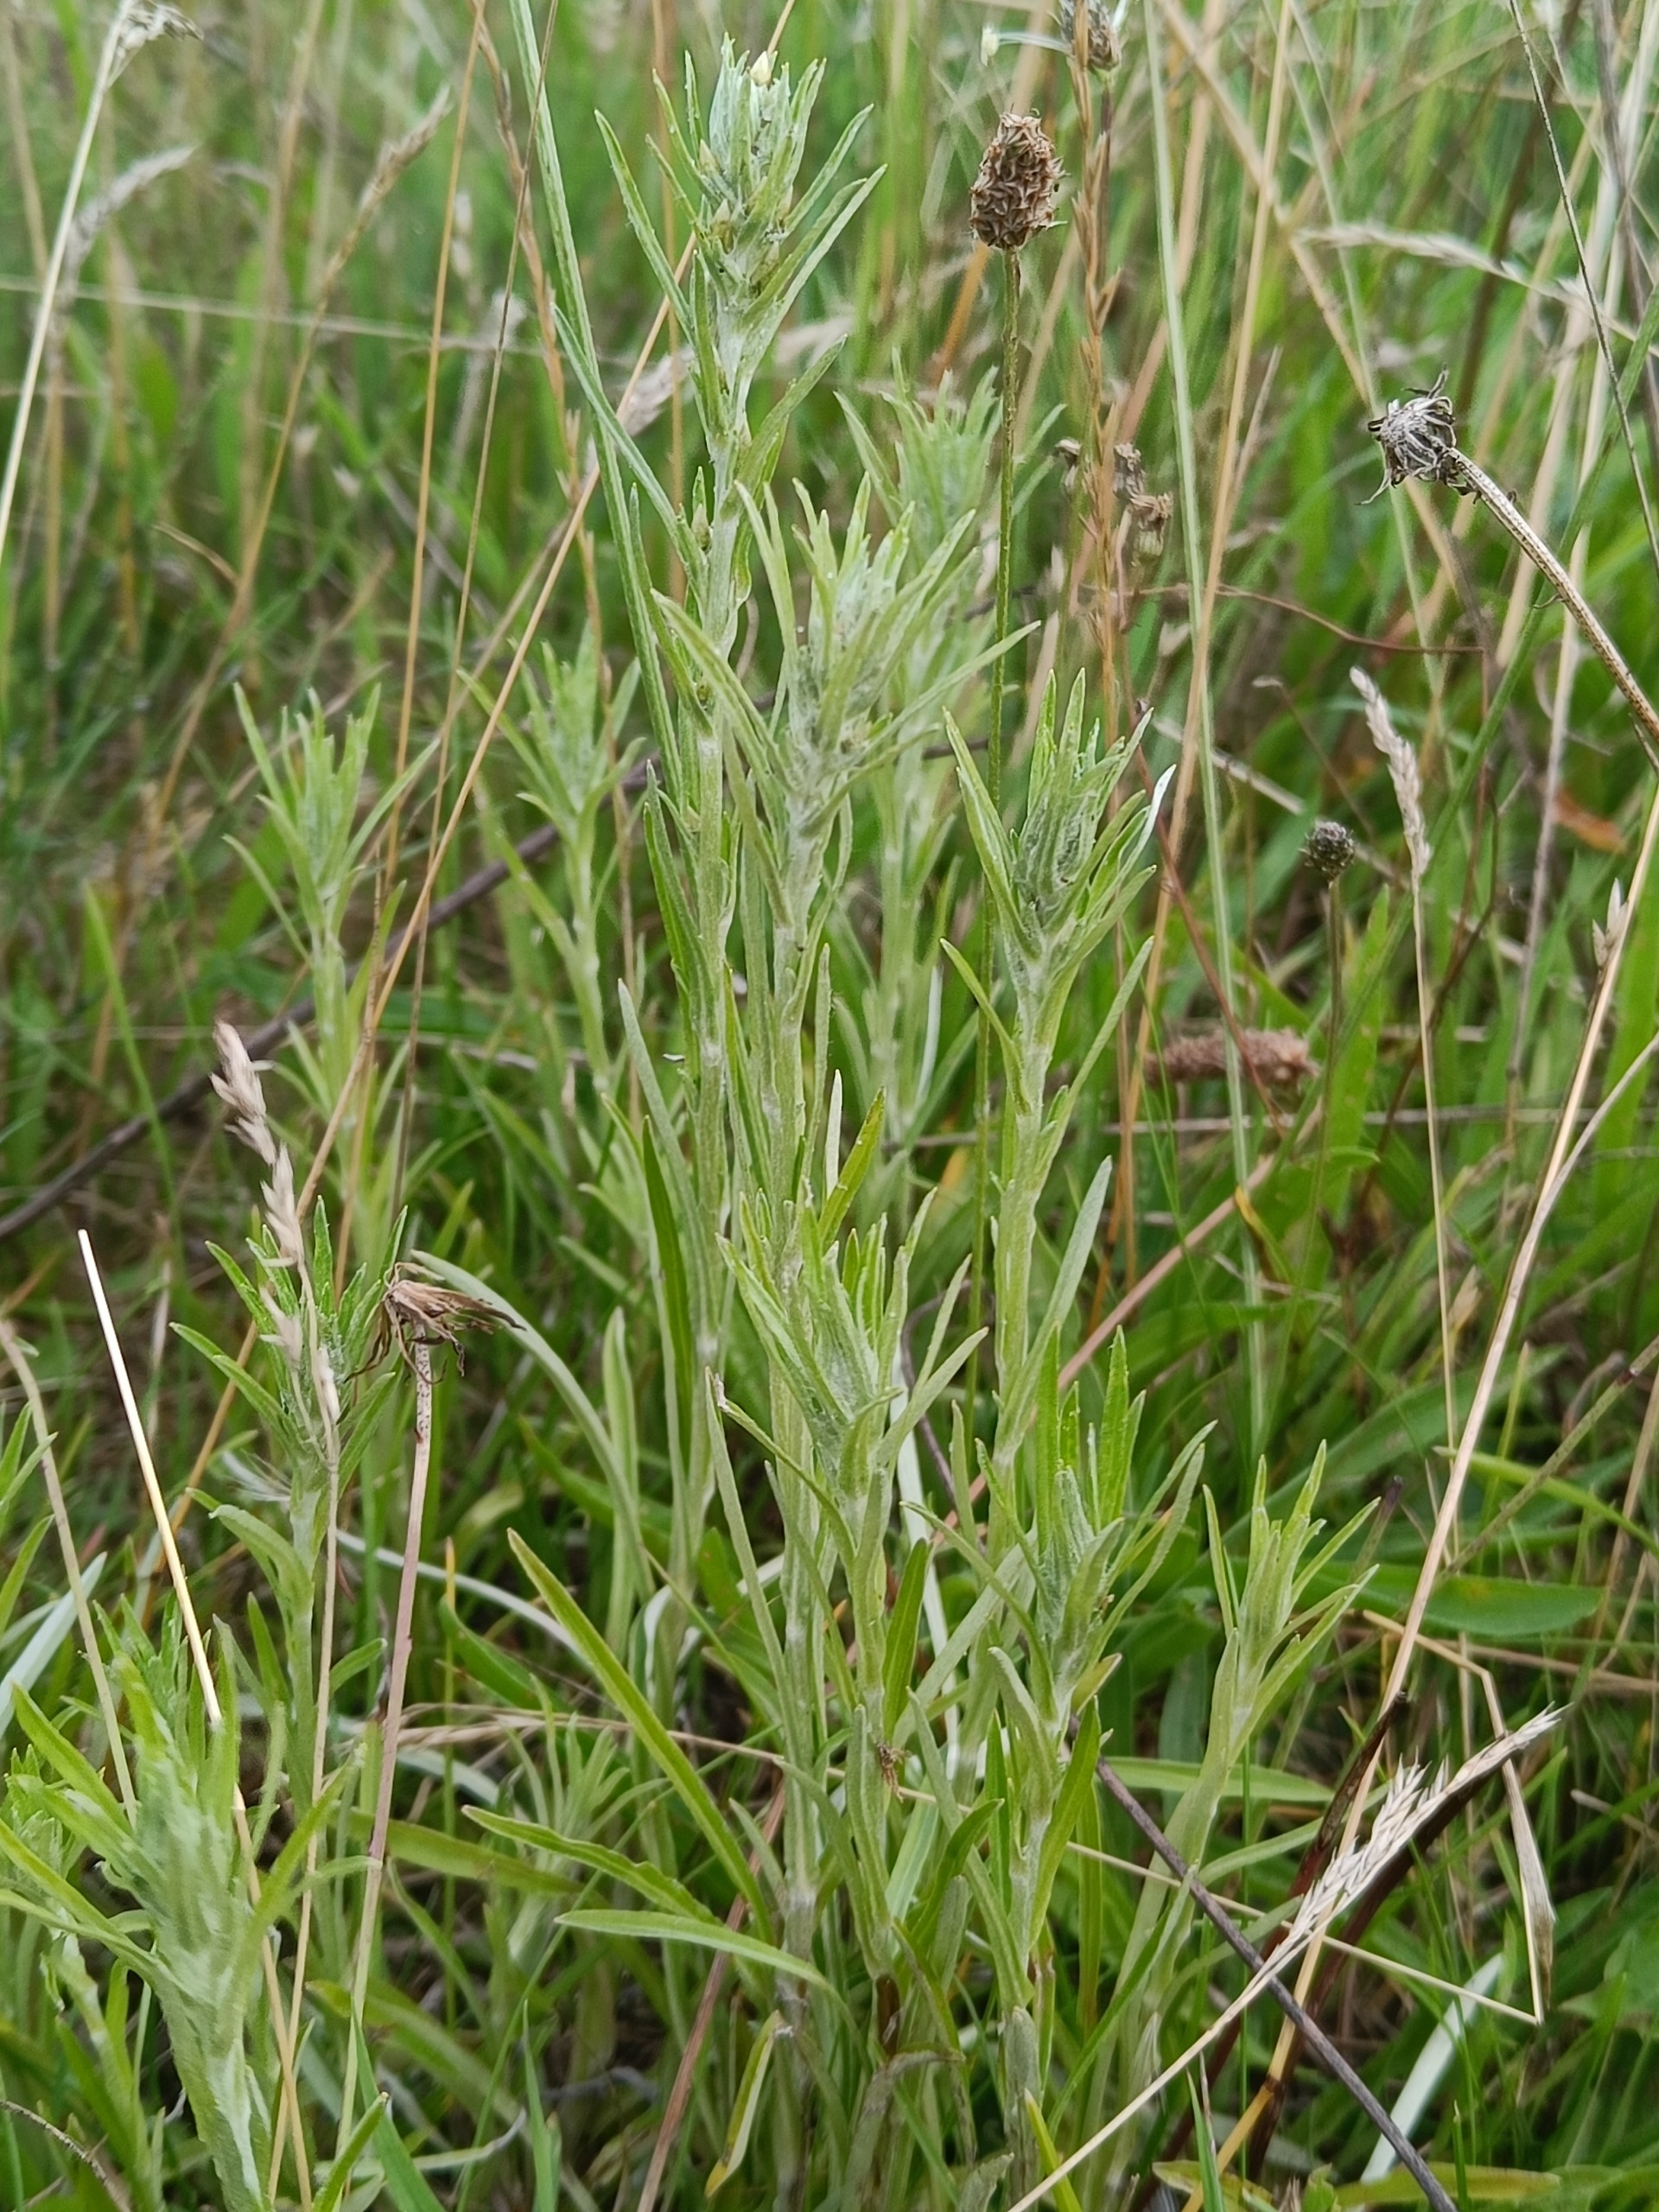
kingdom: Plantae
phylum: Tracheophyta
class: Magnoliopsida
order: Asterales
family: Asteraceae
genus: Omalotheca
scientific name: Omalotheca sylvatica
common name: Rank evighedsblomst
